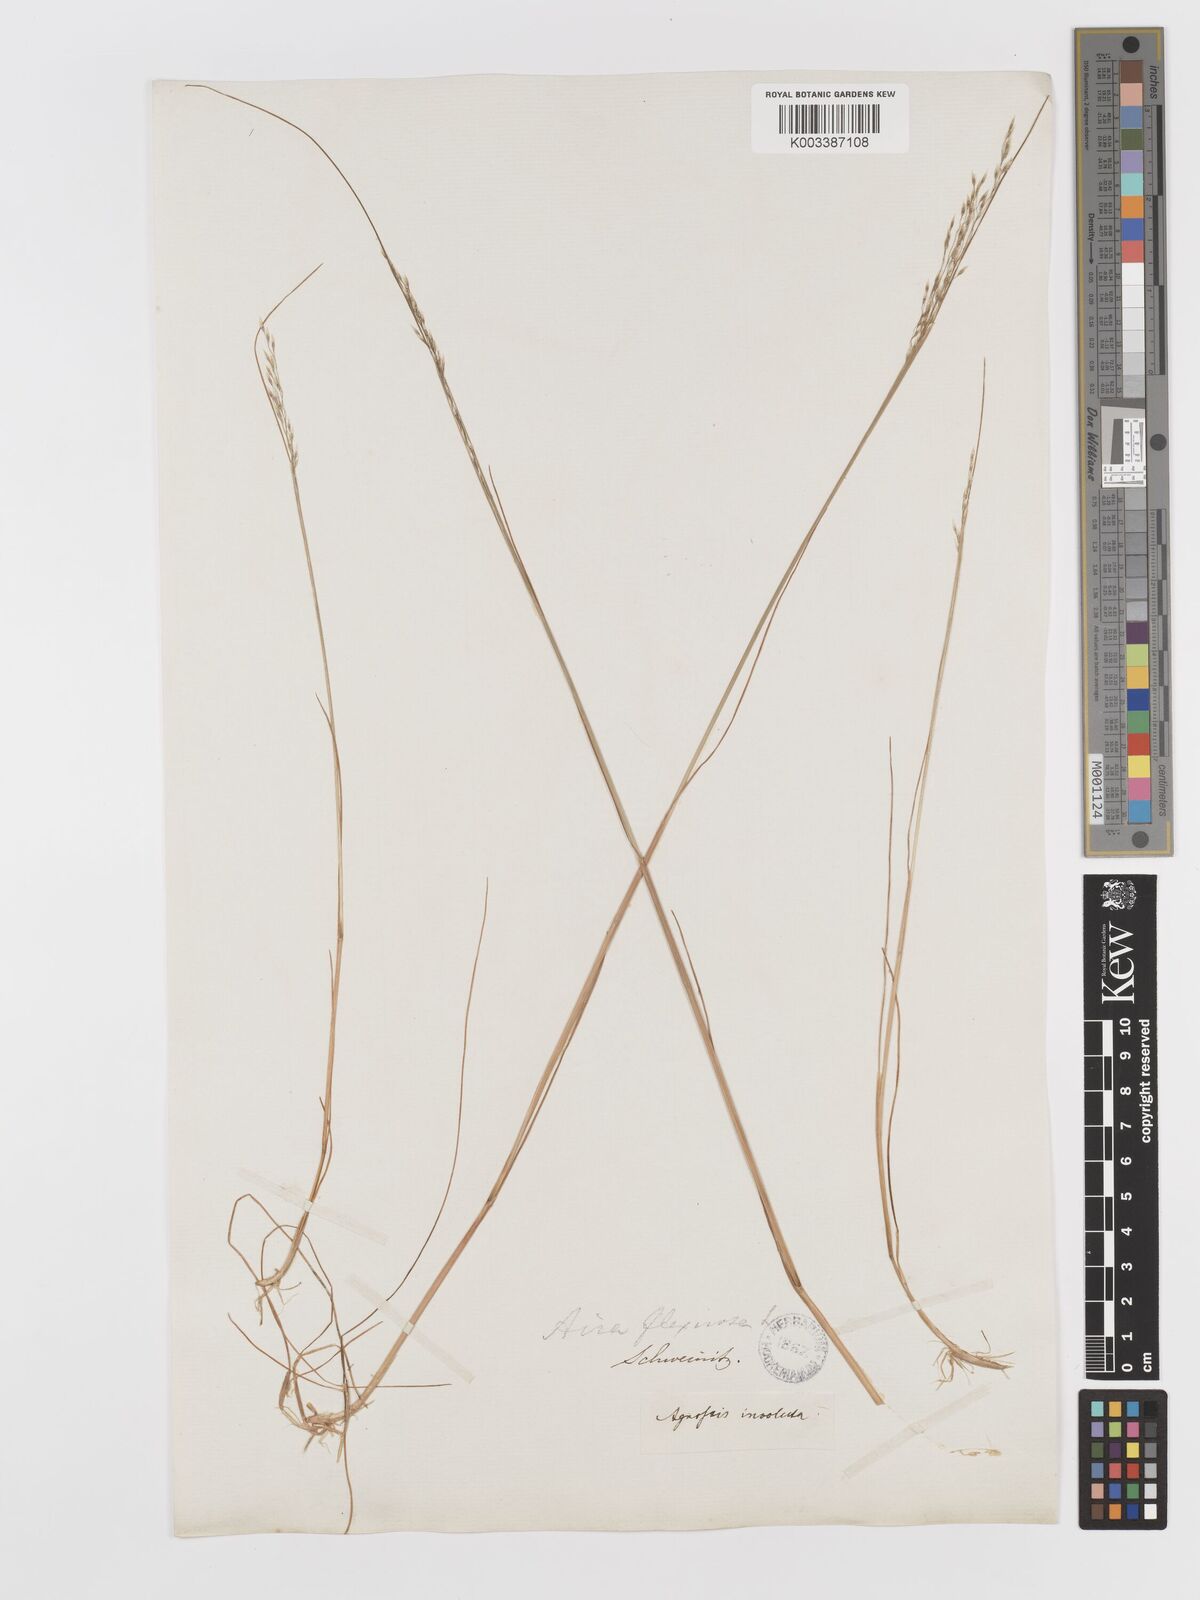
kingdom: Plantae
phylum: Tracheophyta
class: Liliopsida
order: Poales
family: Poaceae
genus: Avenella
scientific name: Avenella flexuosa
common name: Wavy hairgrass
